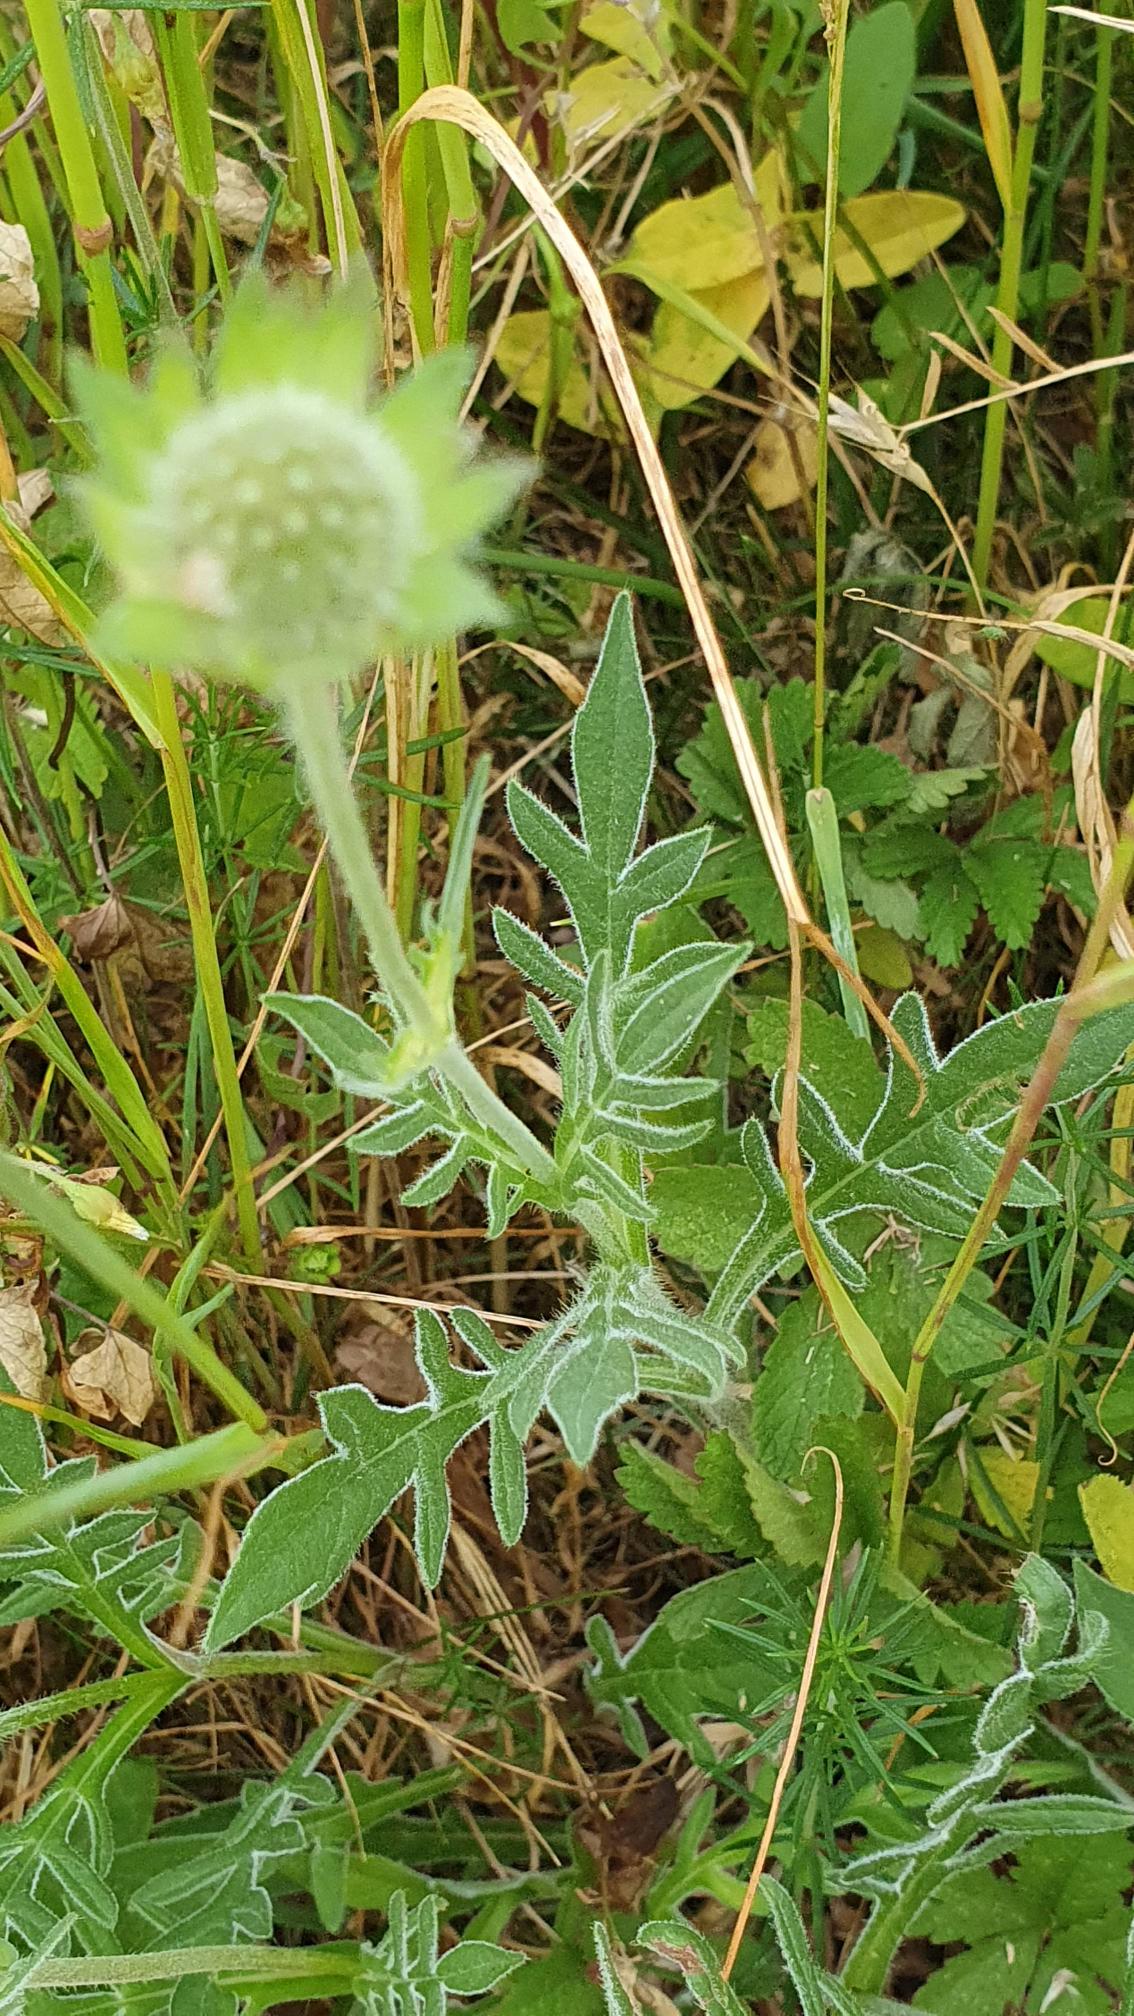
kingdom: Plantae
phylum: Tracheophyta
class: Magnoliopsida
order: Dipsacales
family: Caprifoliaceae
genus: Knautia
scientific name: Knautia arvensis
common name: Blåhat
